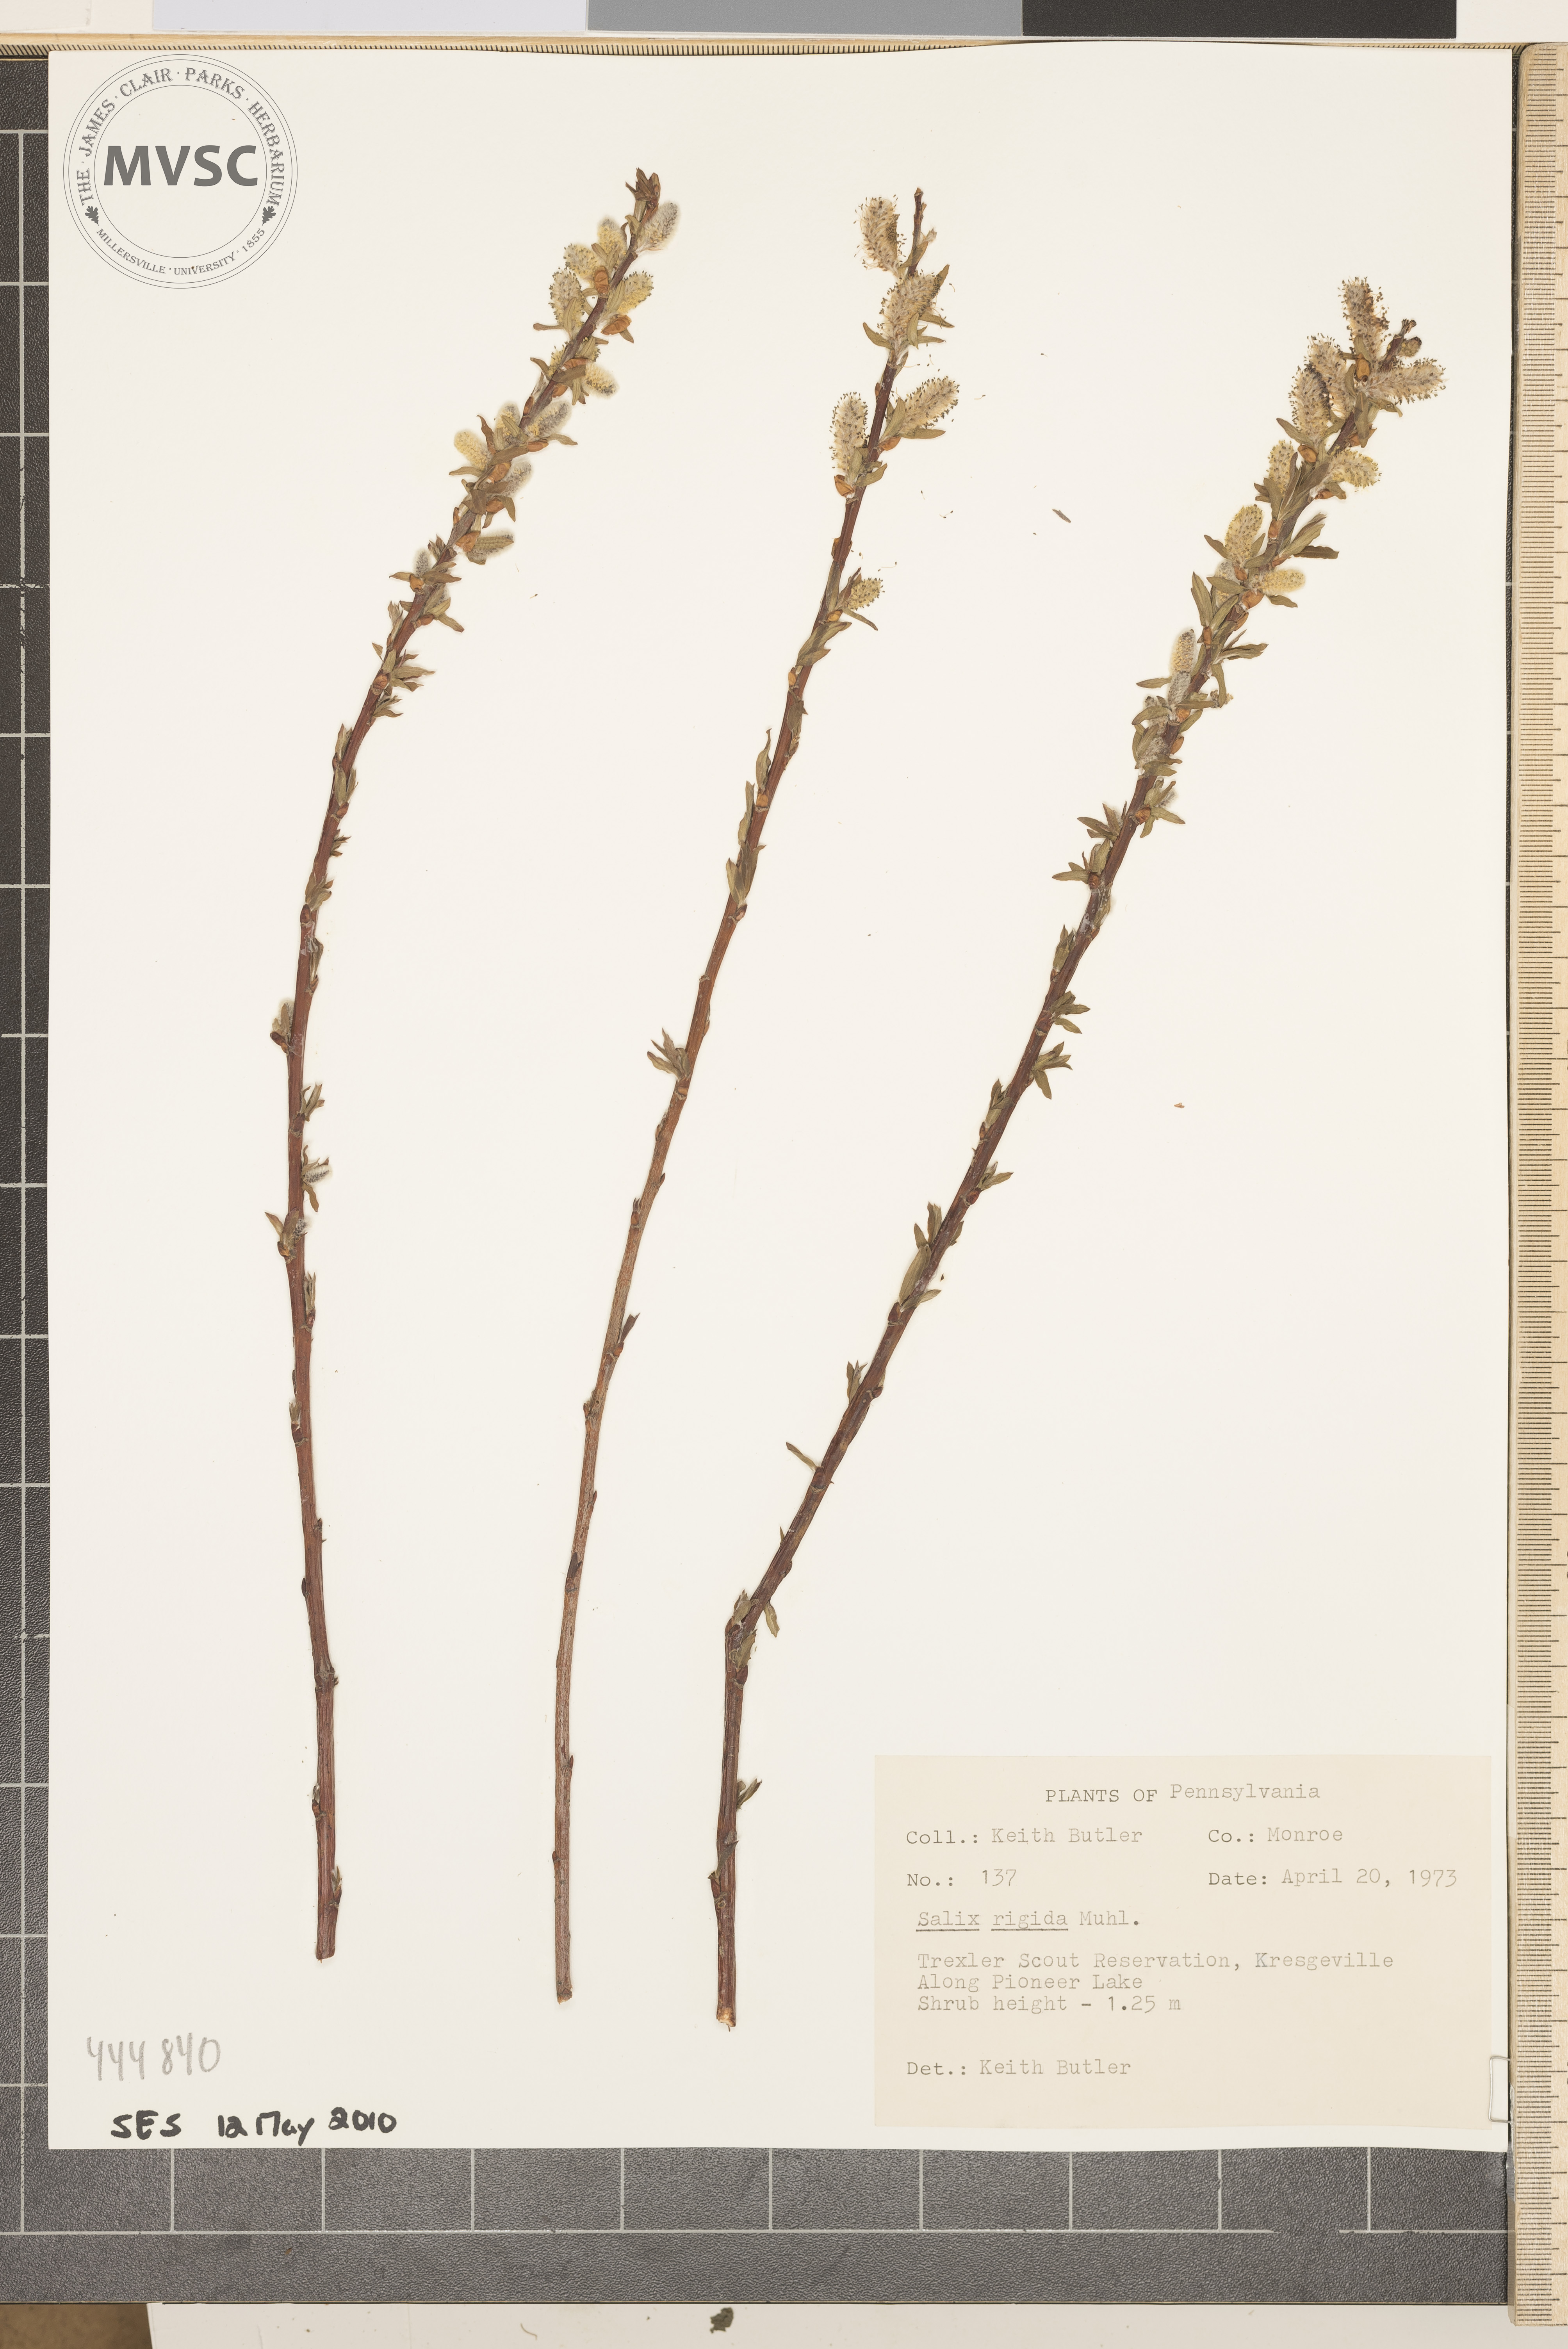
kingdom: Plantae
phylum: Tracheophyta
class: Magnoliopsida
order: Malpighiales
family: Salicaceae
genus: Salix
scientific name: Salix eriocephala
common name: Heart-leaved willow
